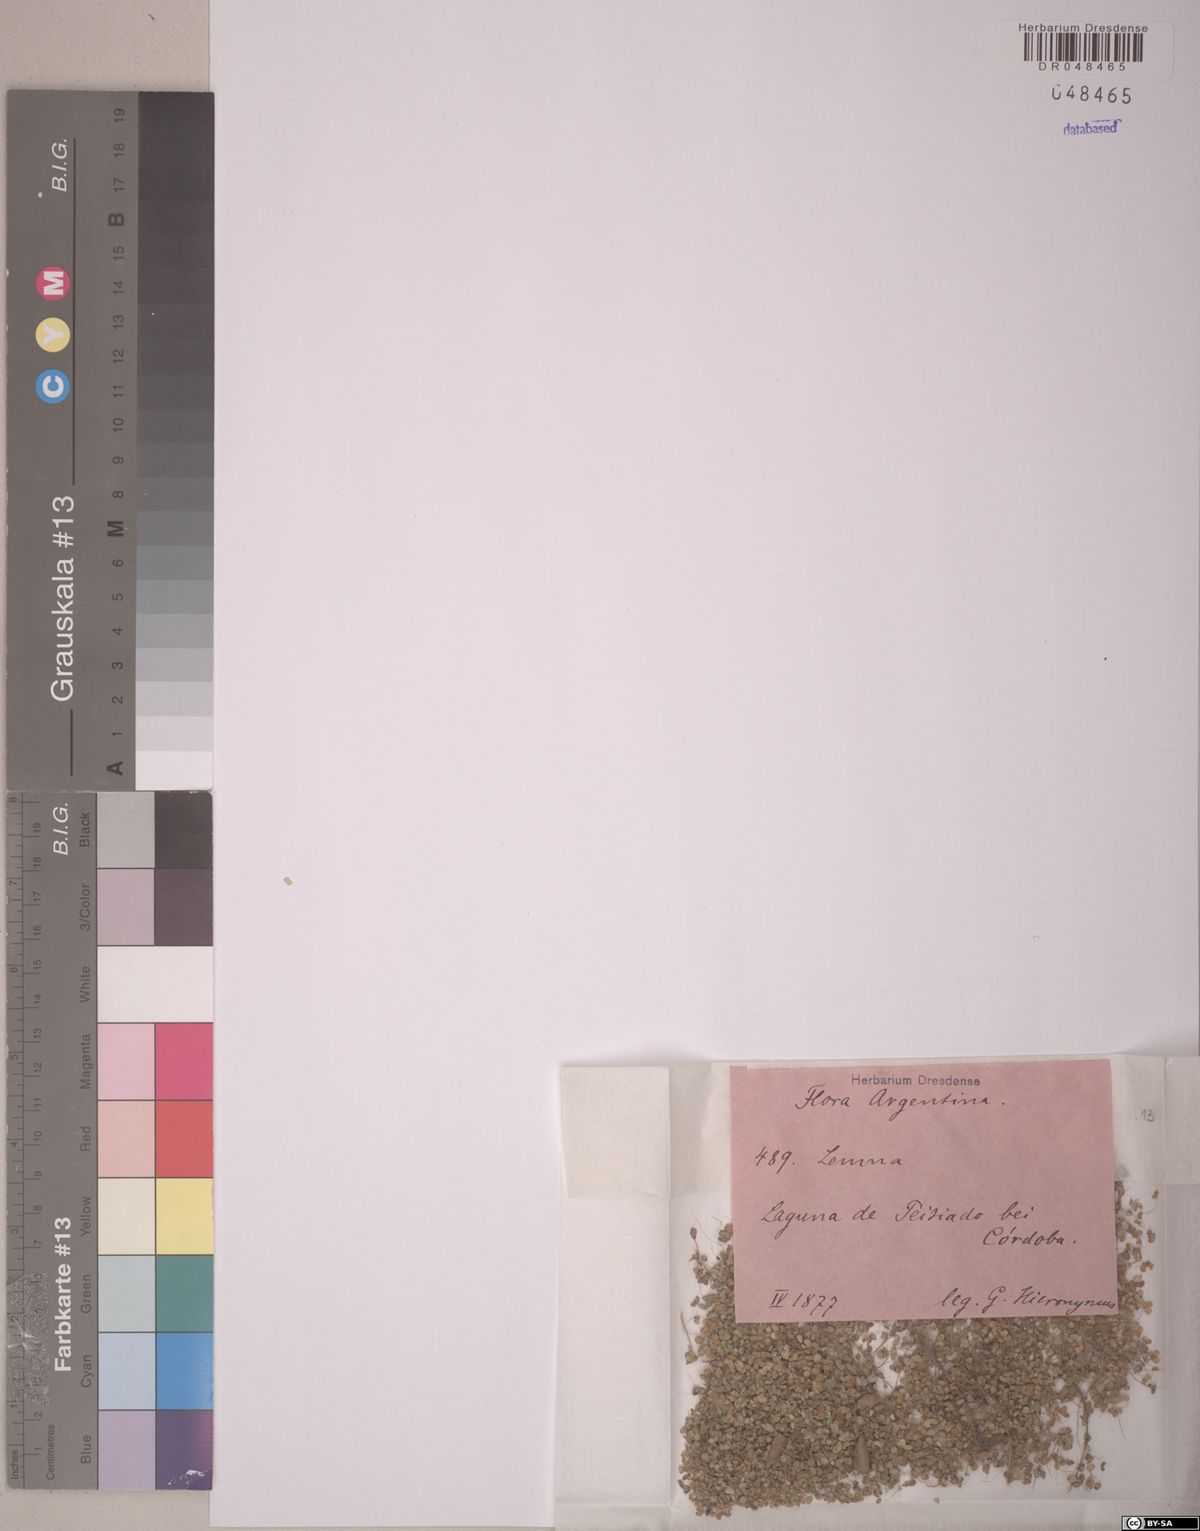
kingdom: Plantae
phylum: Tracheophyta
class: Liliopsida
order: Alismatales
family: Araceae
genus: Lemna
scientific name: Lemna gibba
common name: Fat duckweed
